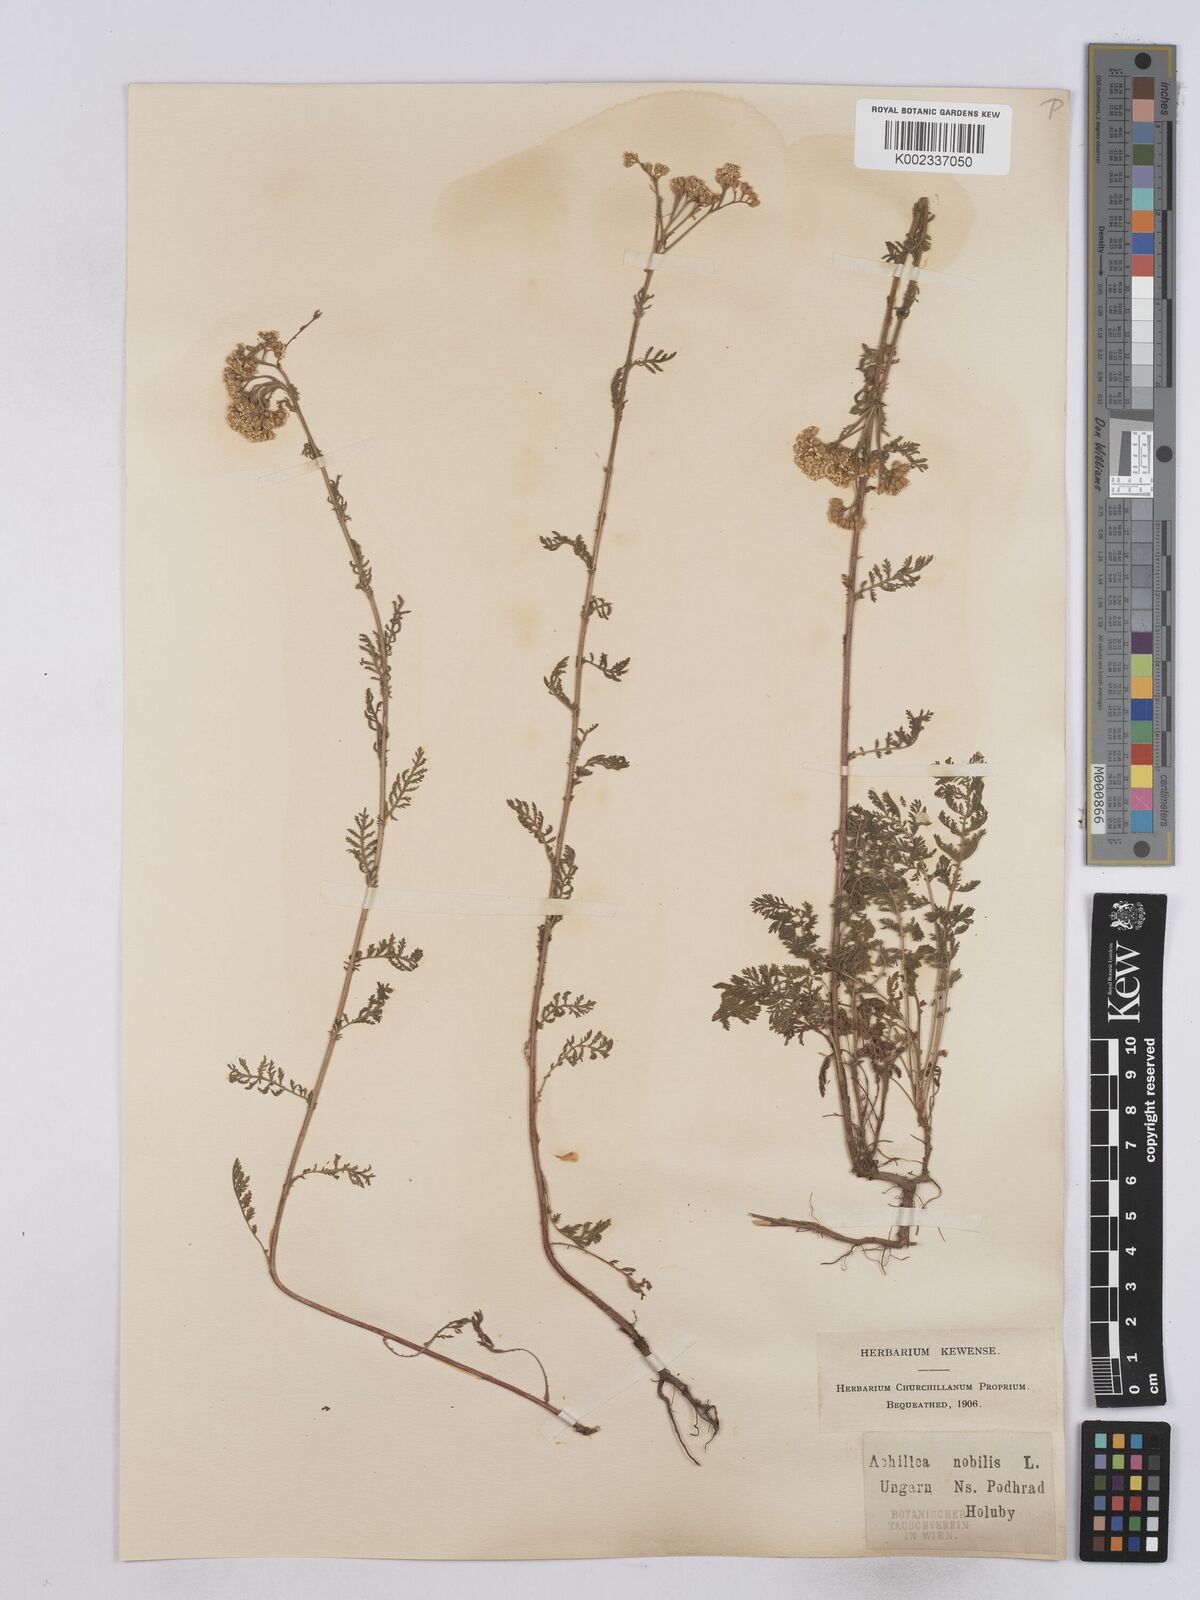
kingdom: Plantae
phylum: Tracheophyta
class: Magnoliopsida
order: Asterales
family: Asteraceae
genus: Achillea
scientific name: Achillea nobilis
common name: Noble yarrow
